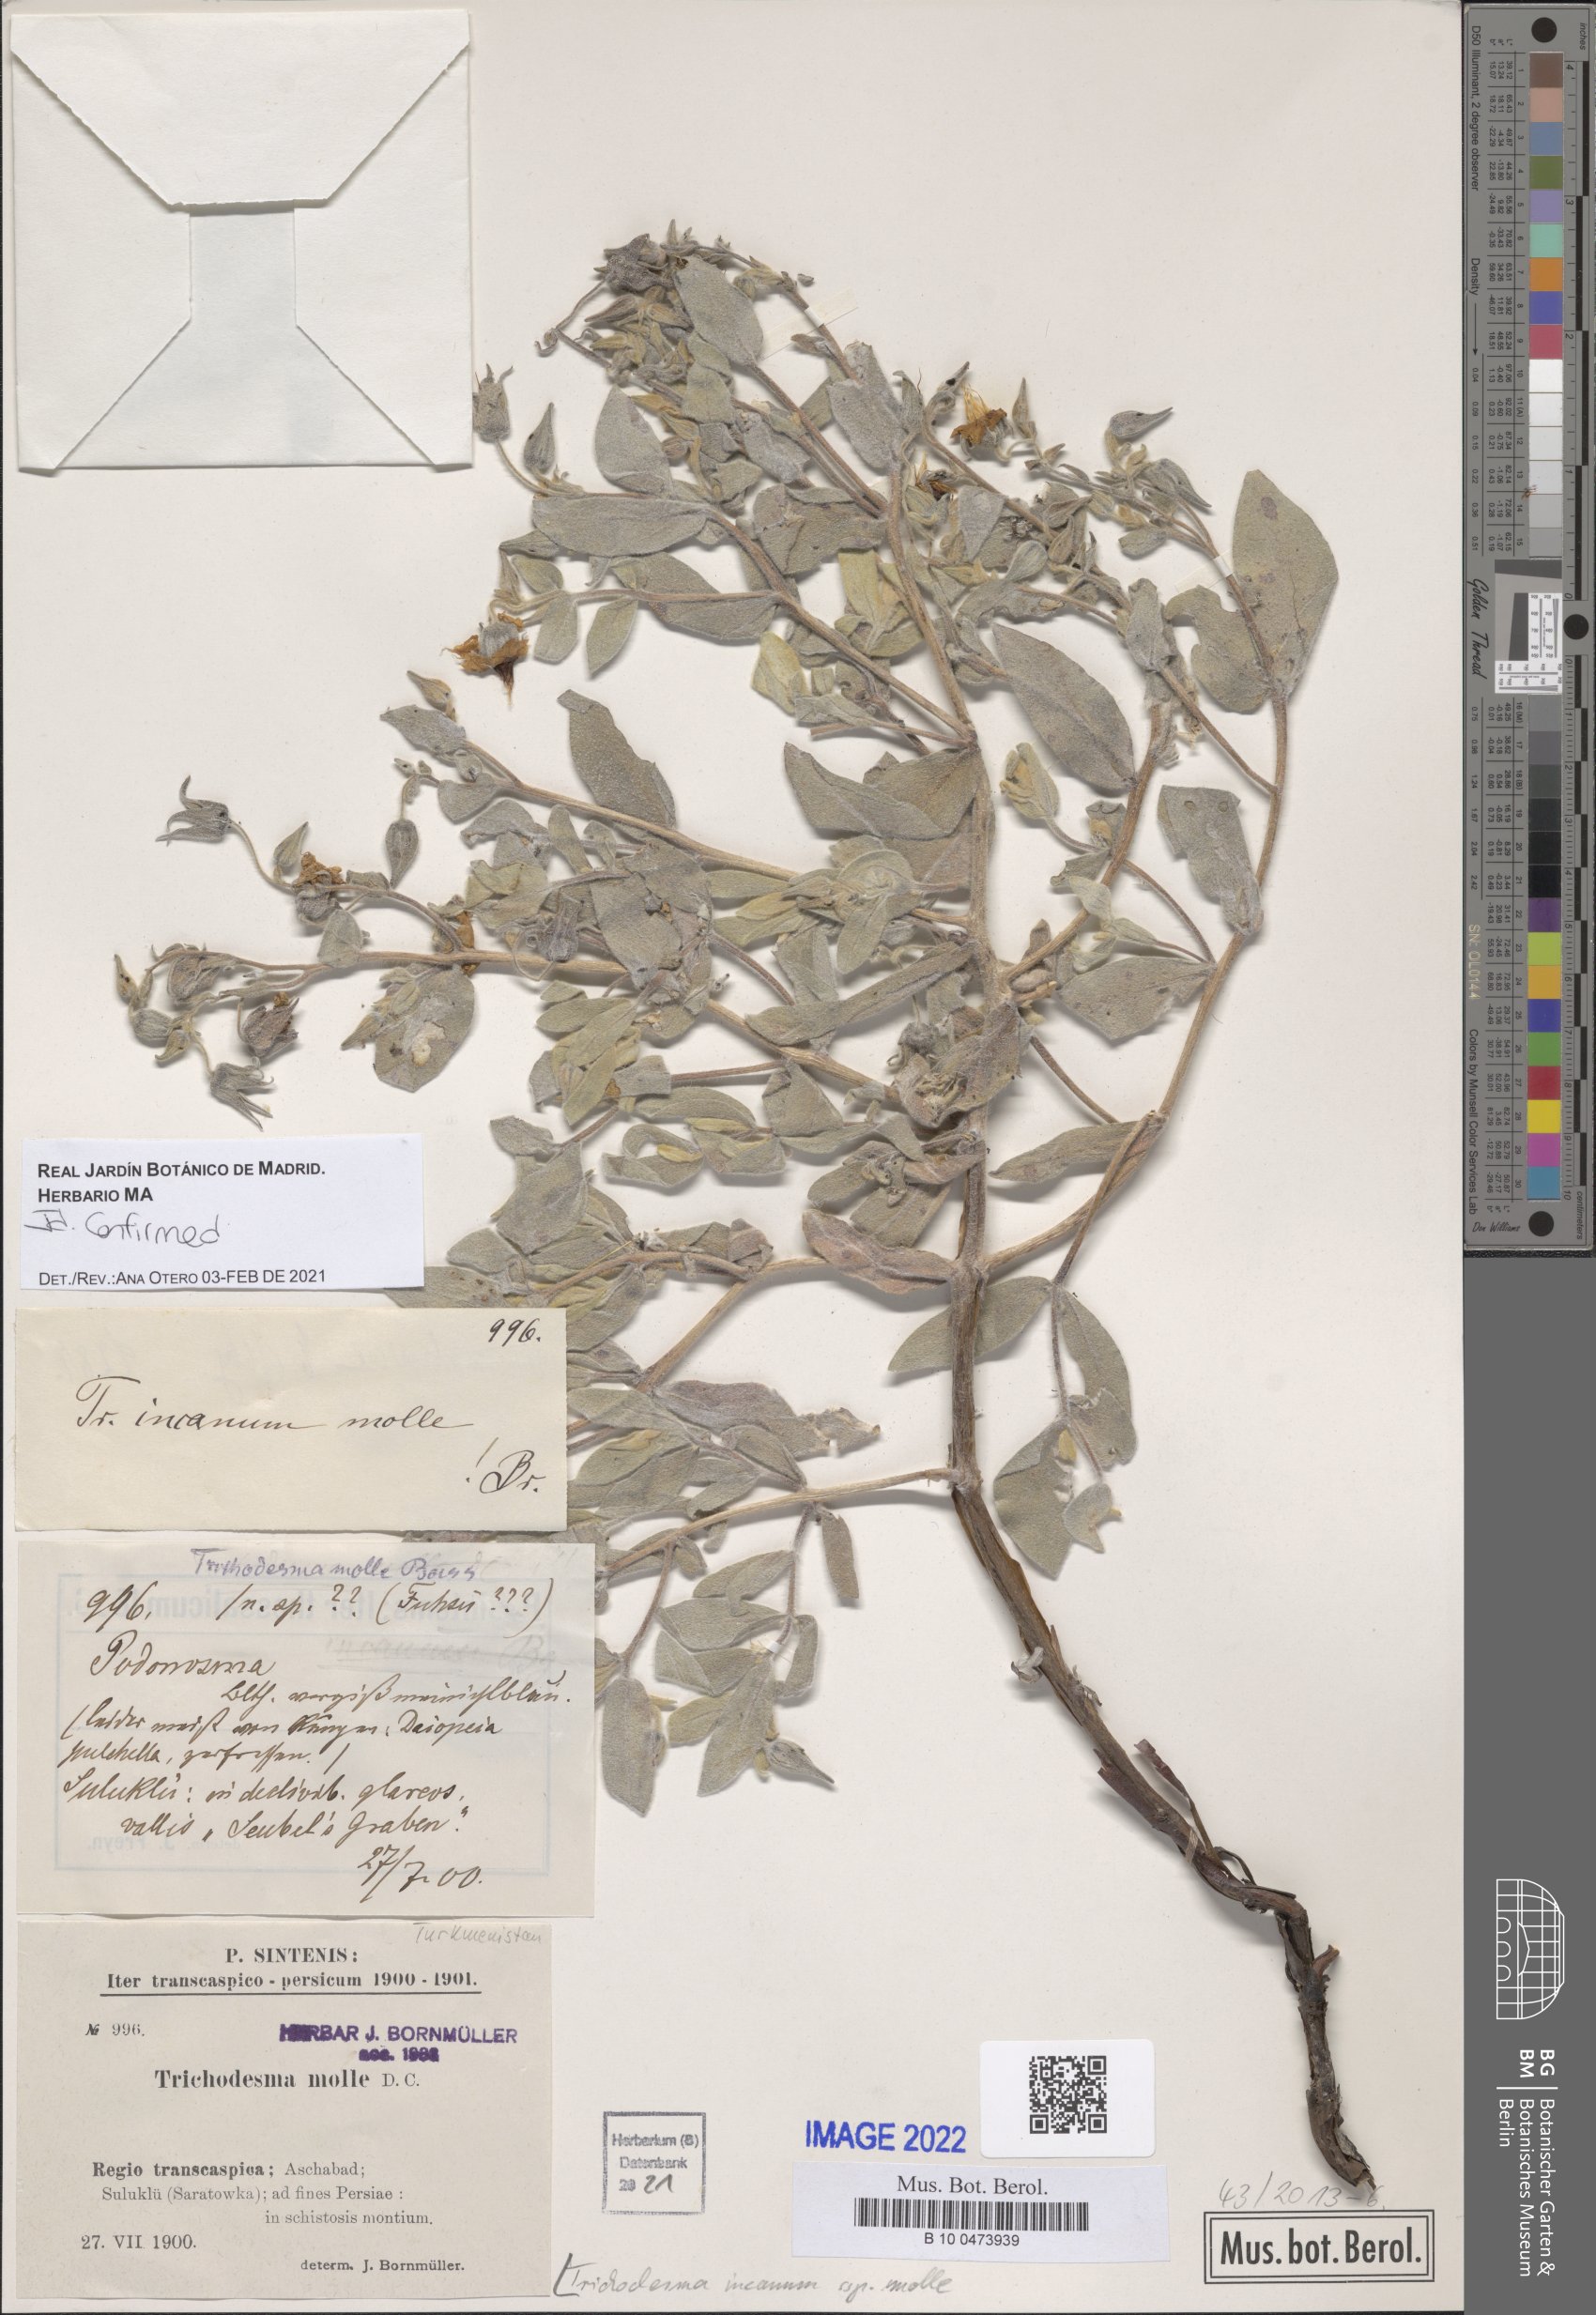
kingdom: Plantae
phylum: Tracheophyta
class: Magnoliopsida
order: Boraginales
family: Boraginaceae
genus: Trichodesma
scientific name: Trichodesma incanum
